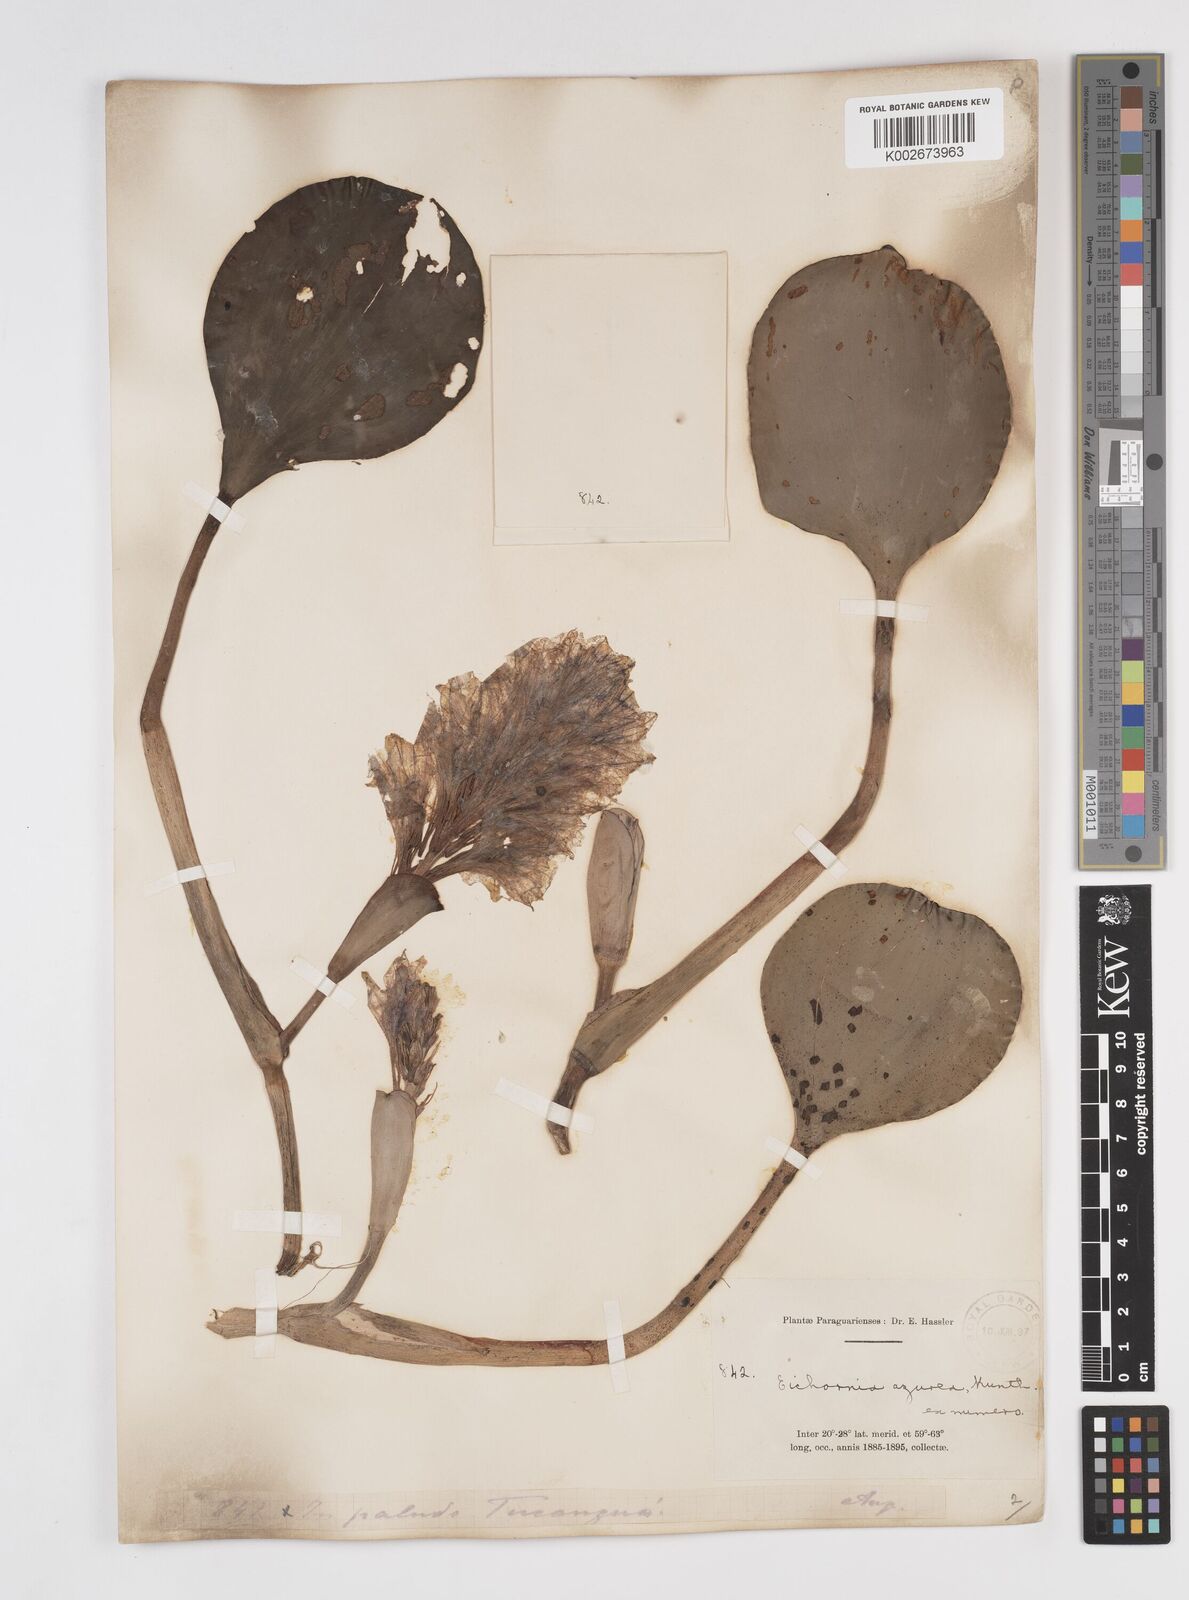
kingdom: Plantae
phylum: Tracheophyta
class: Liliopsida
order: Commelinales
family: Pontederiaceae
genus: Pontederia
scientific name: Pontederia azurea
